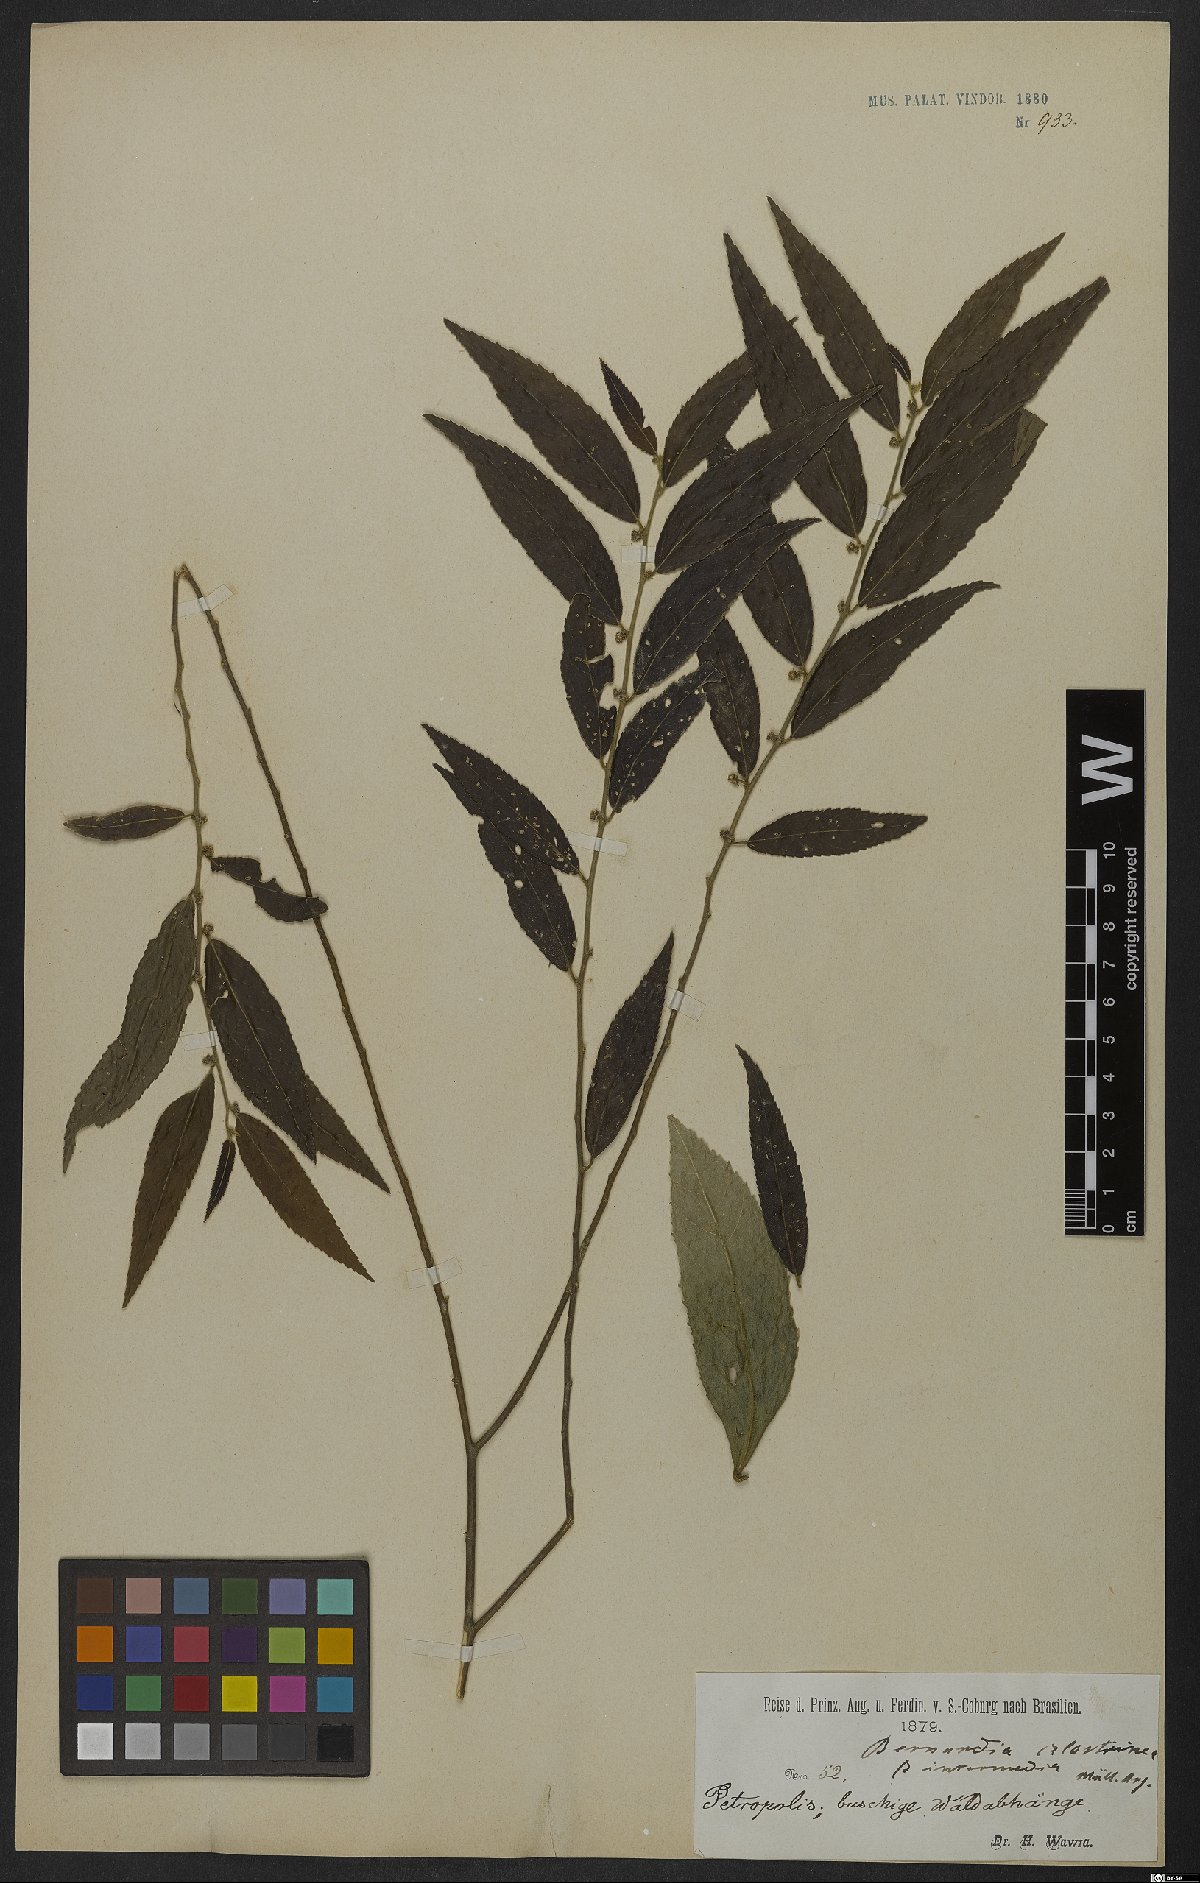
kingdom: Plantae
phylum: Tracheophyta
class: Magnoliopsida
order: Malpighiales
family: Euphorbiaceae
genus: Bernardia
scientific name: Bernardia celastrinea
